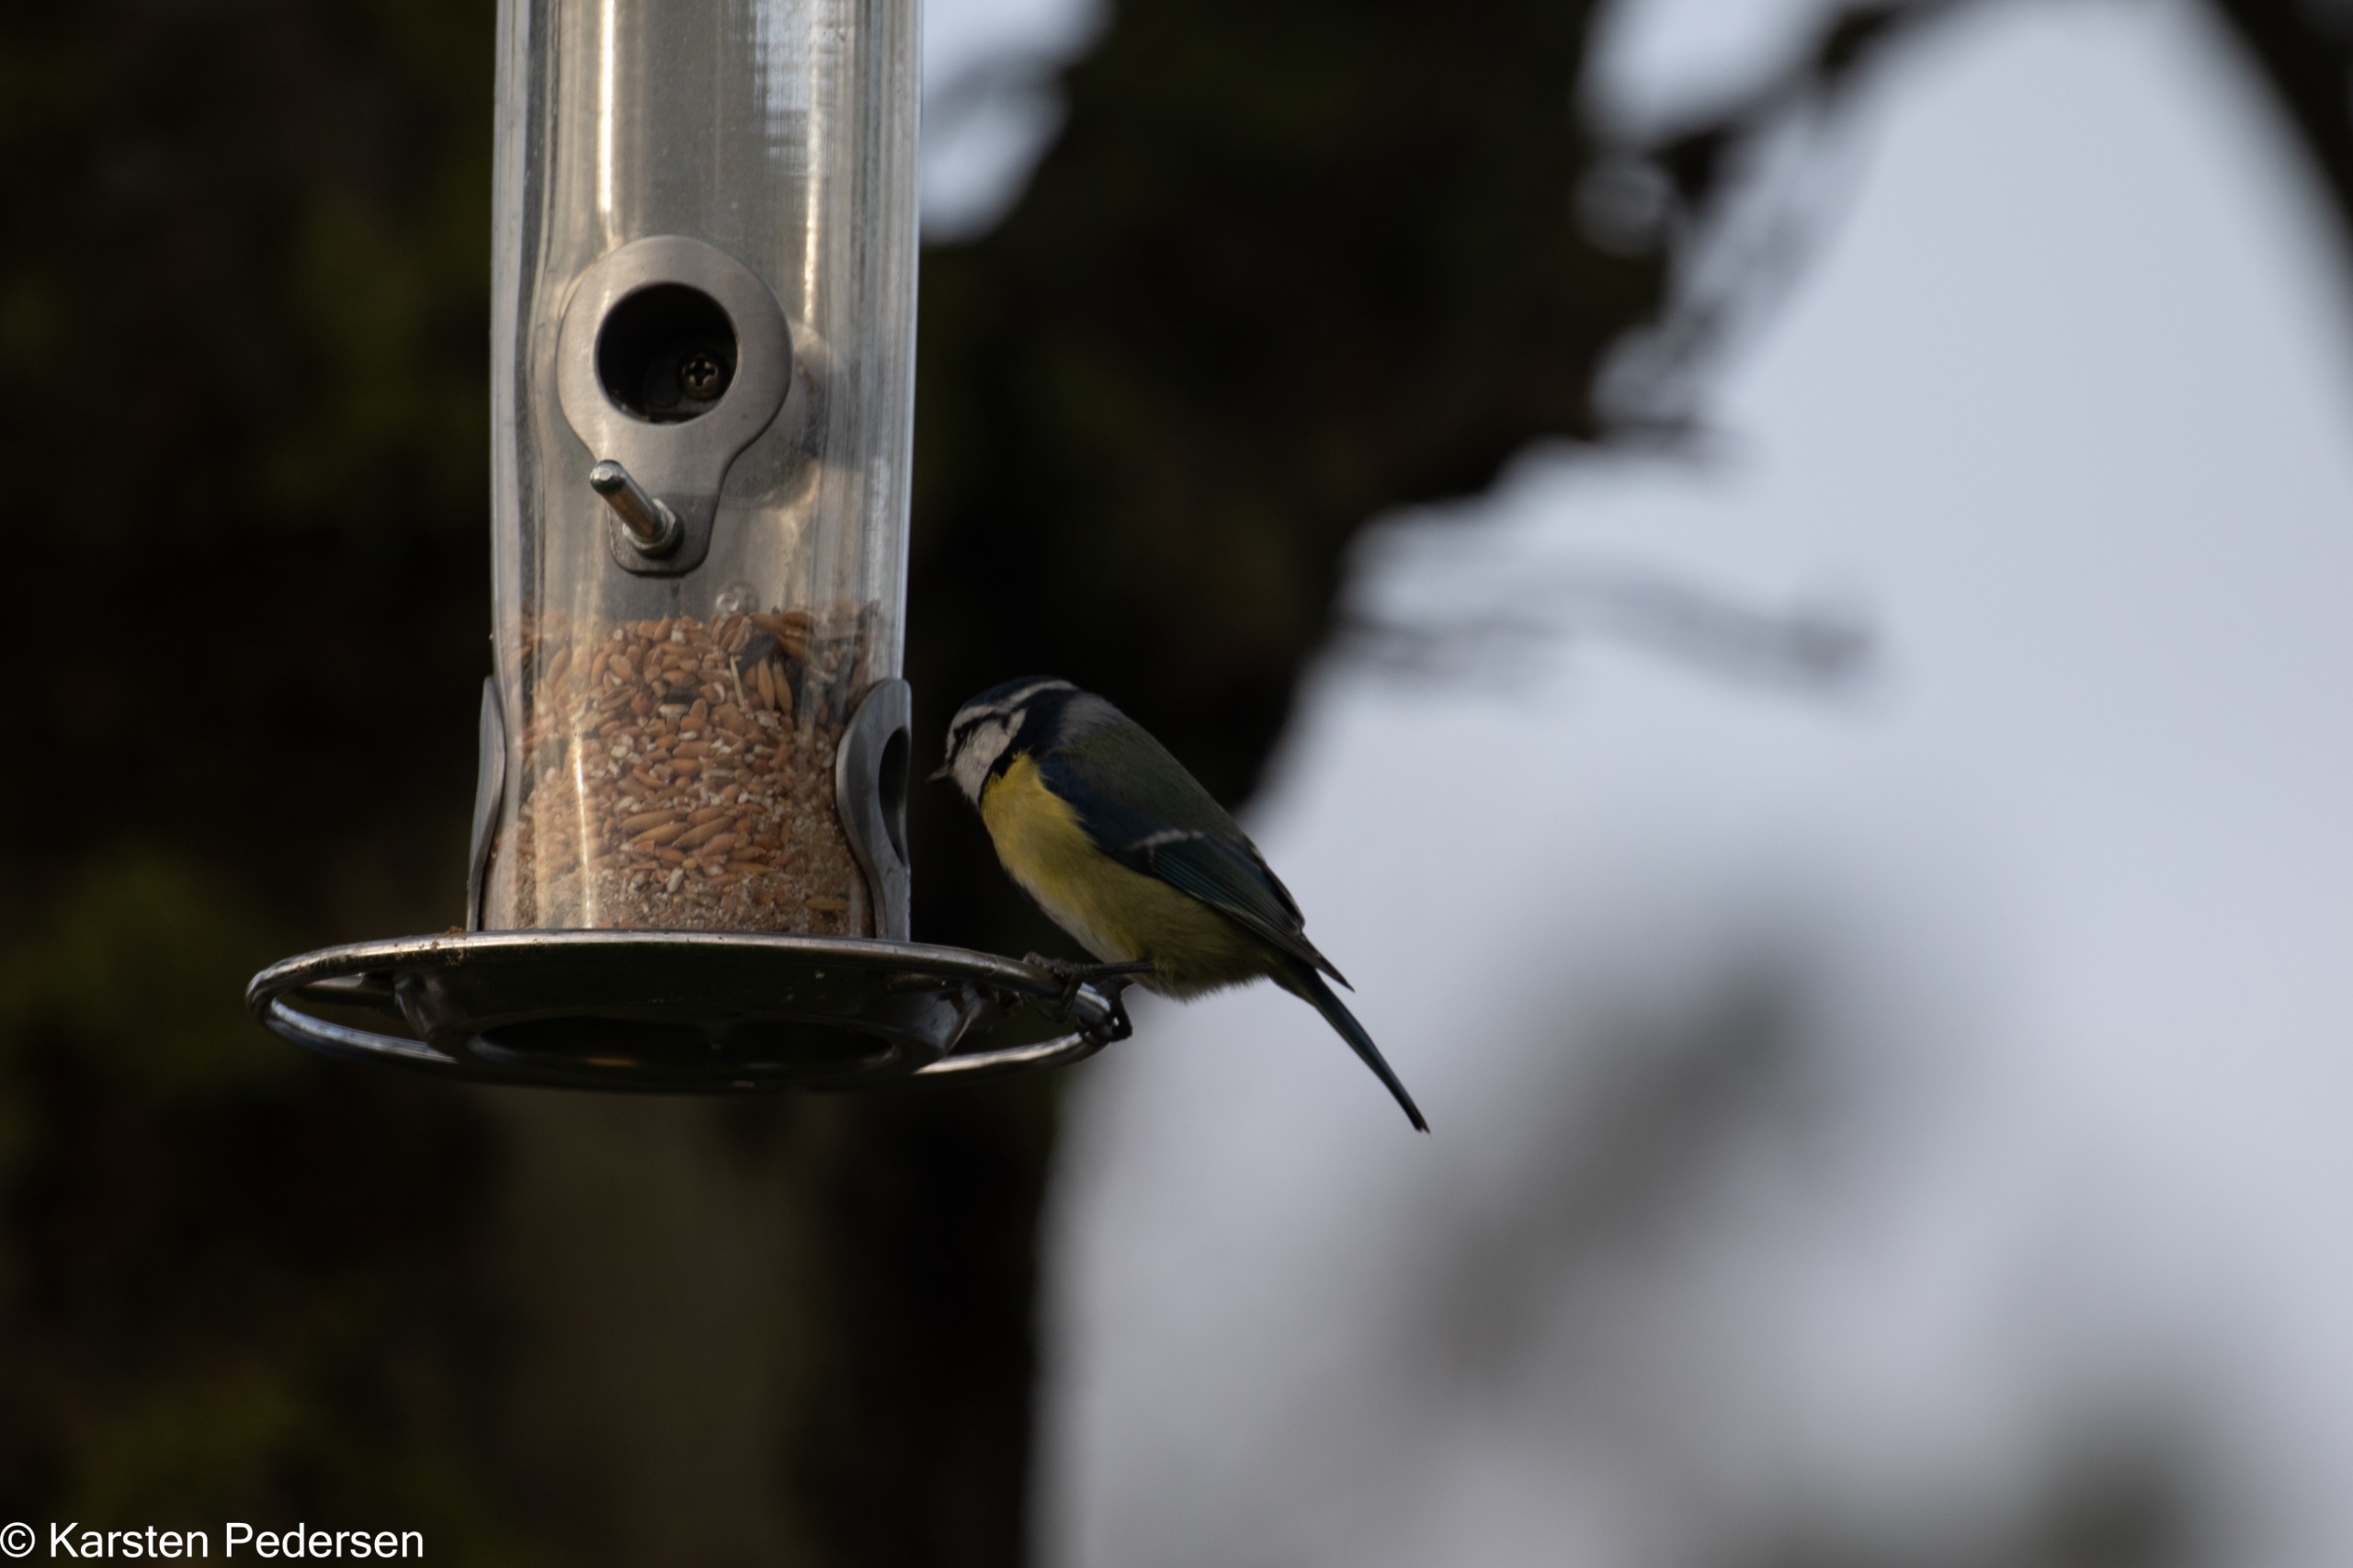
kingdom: Animalia
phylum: Chordata
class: Aves
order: Passeriformes
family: Paridae
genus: Cyanistes
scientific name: Cyanistes caeruleus
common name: Blåmejse
